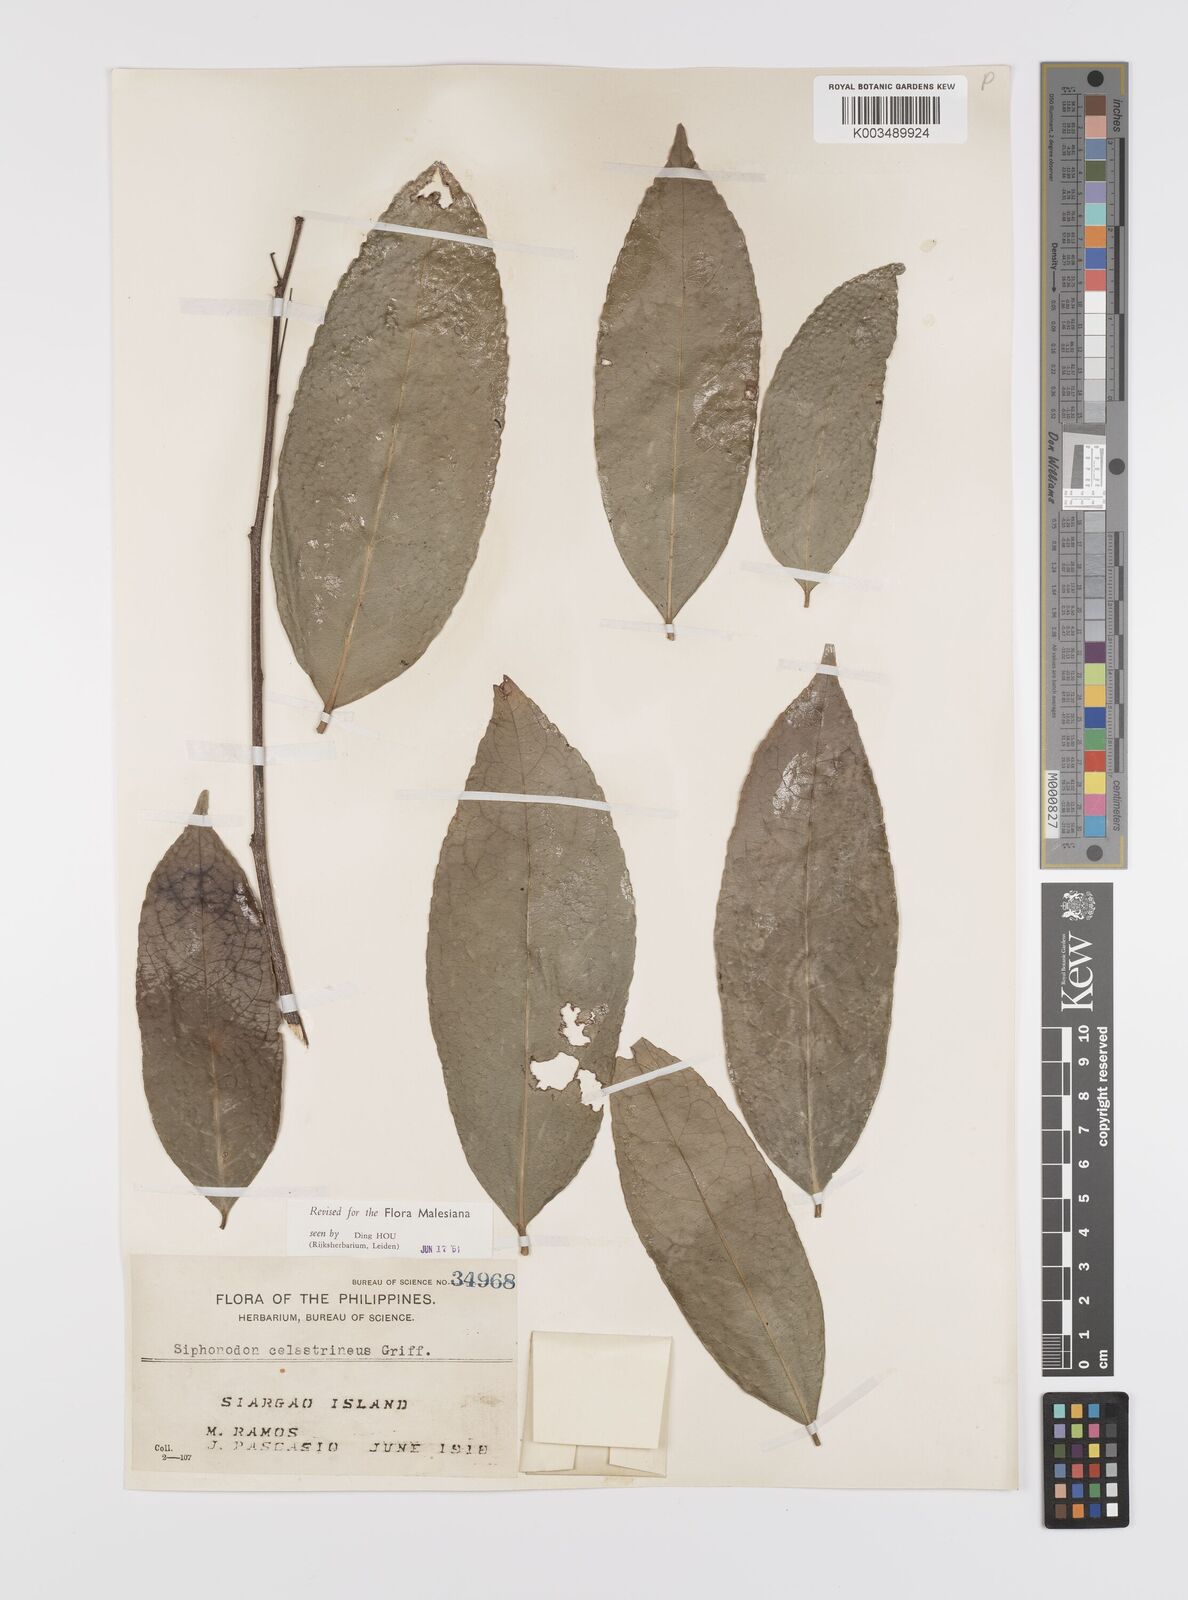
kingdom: Plantae
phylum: Tracheophyta
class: Magnoliopsida
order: Celastrales
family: Celastraceae
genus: Siphonodon
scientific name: Siphonodon celastrineus
